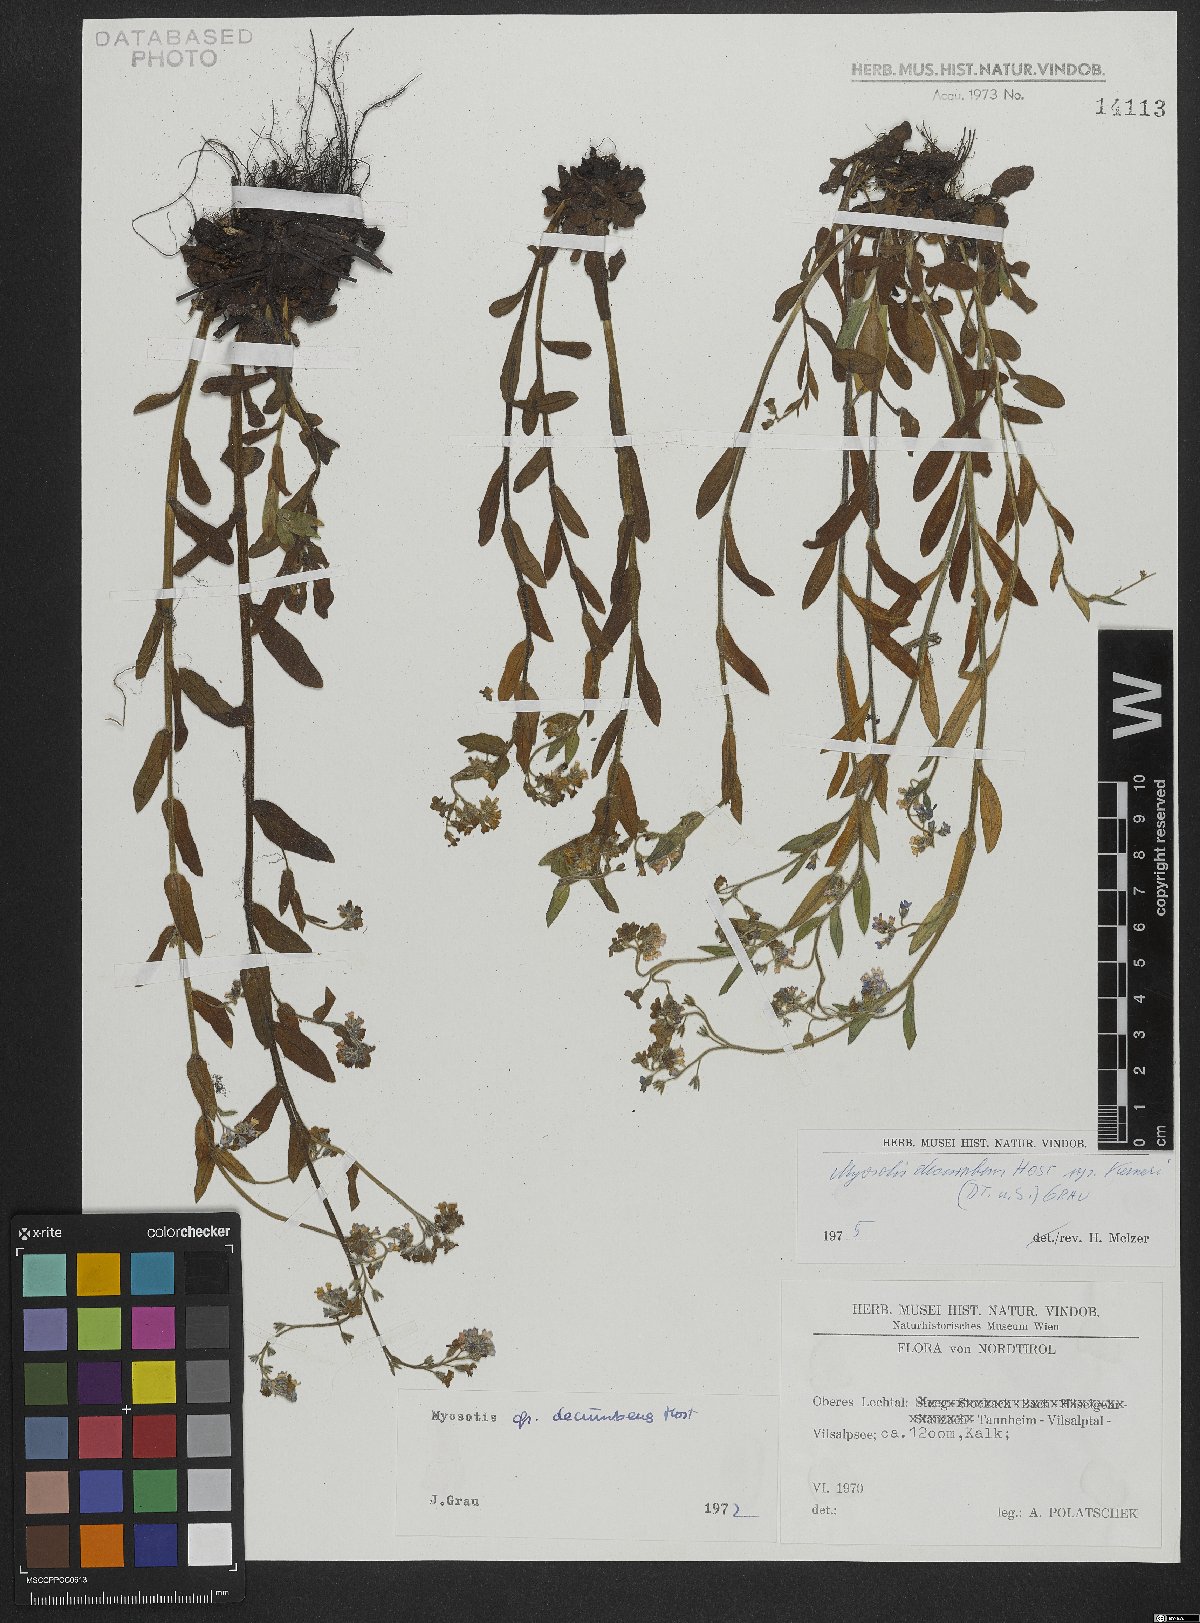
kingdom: Plantae
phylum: Tracheophyta
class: Magnoliopsida
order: Boraginales
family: Boraginaceae
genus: Myosotis
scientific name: Myosotis decumbens
